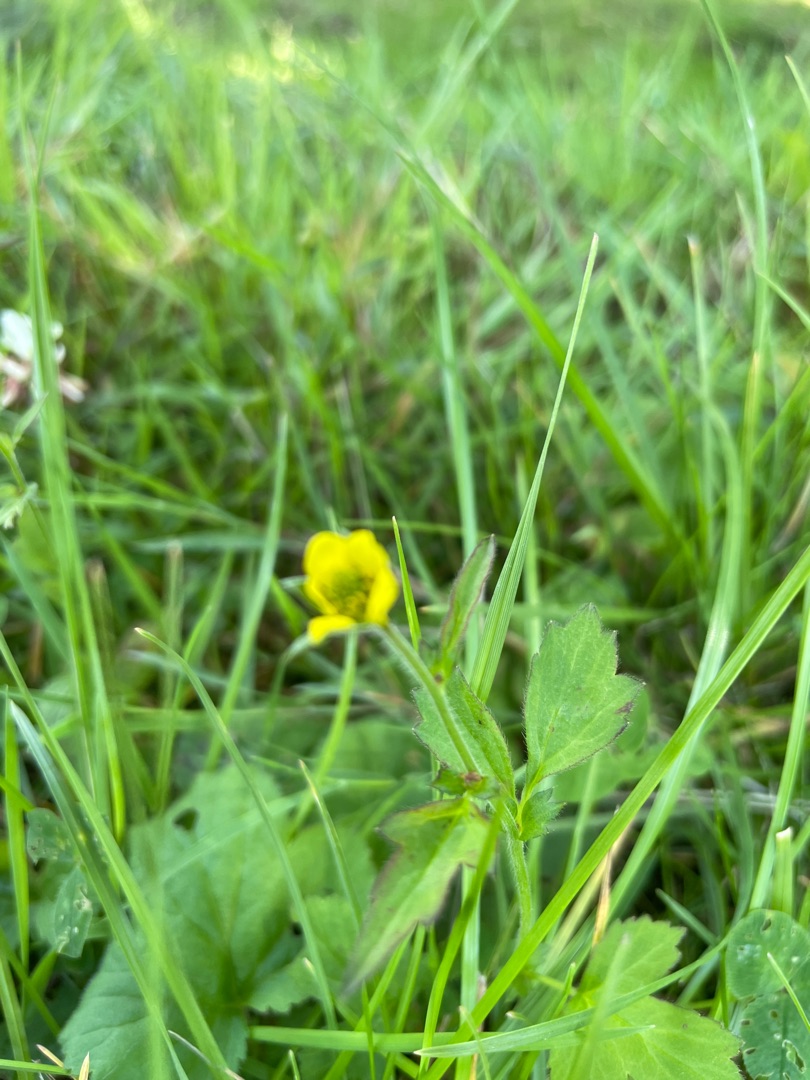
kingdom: Plantae
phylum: Tracheophyta
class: Magnoliopsida
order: Ranunculales
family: Ranunculaceae
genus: Ranunculus
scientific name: Ranunculus repens
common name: Lav ranunkel
